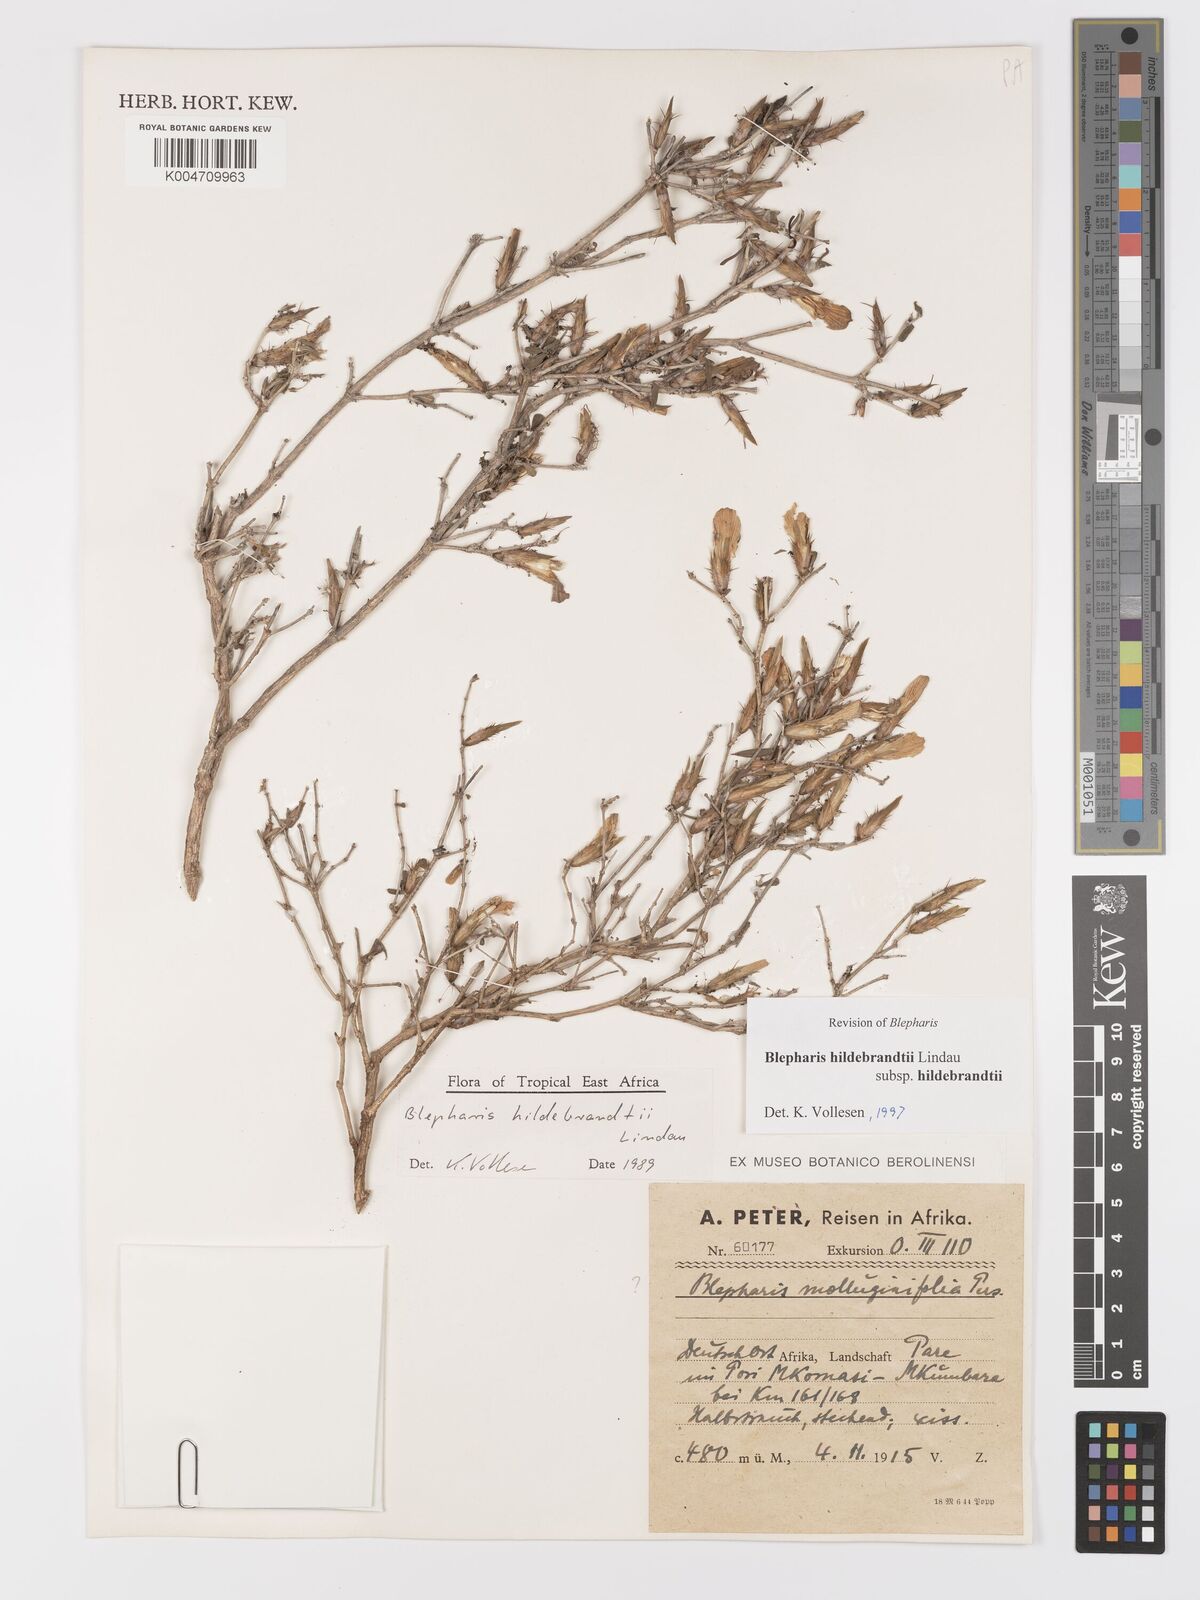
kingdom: Plantae
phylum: Tracheophyta
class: Magnoliopsida
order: Lamiales
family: Acanthaceae
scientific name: Acanthaceae
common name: Acanthaceae
